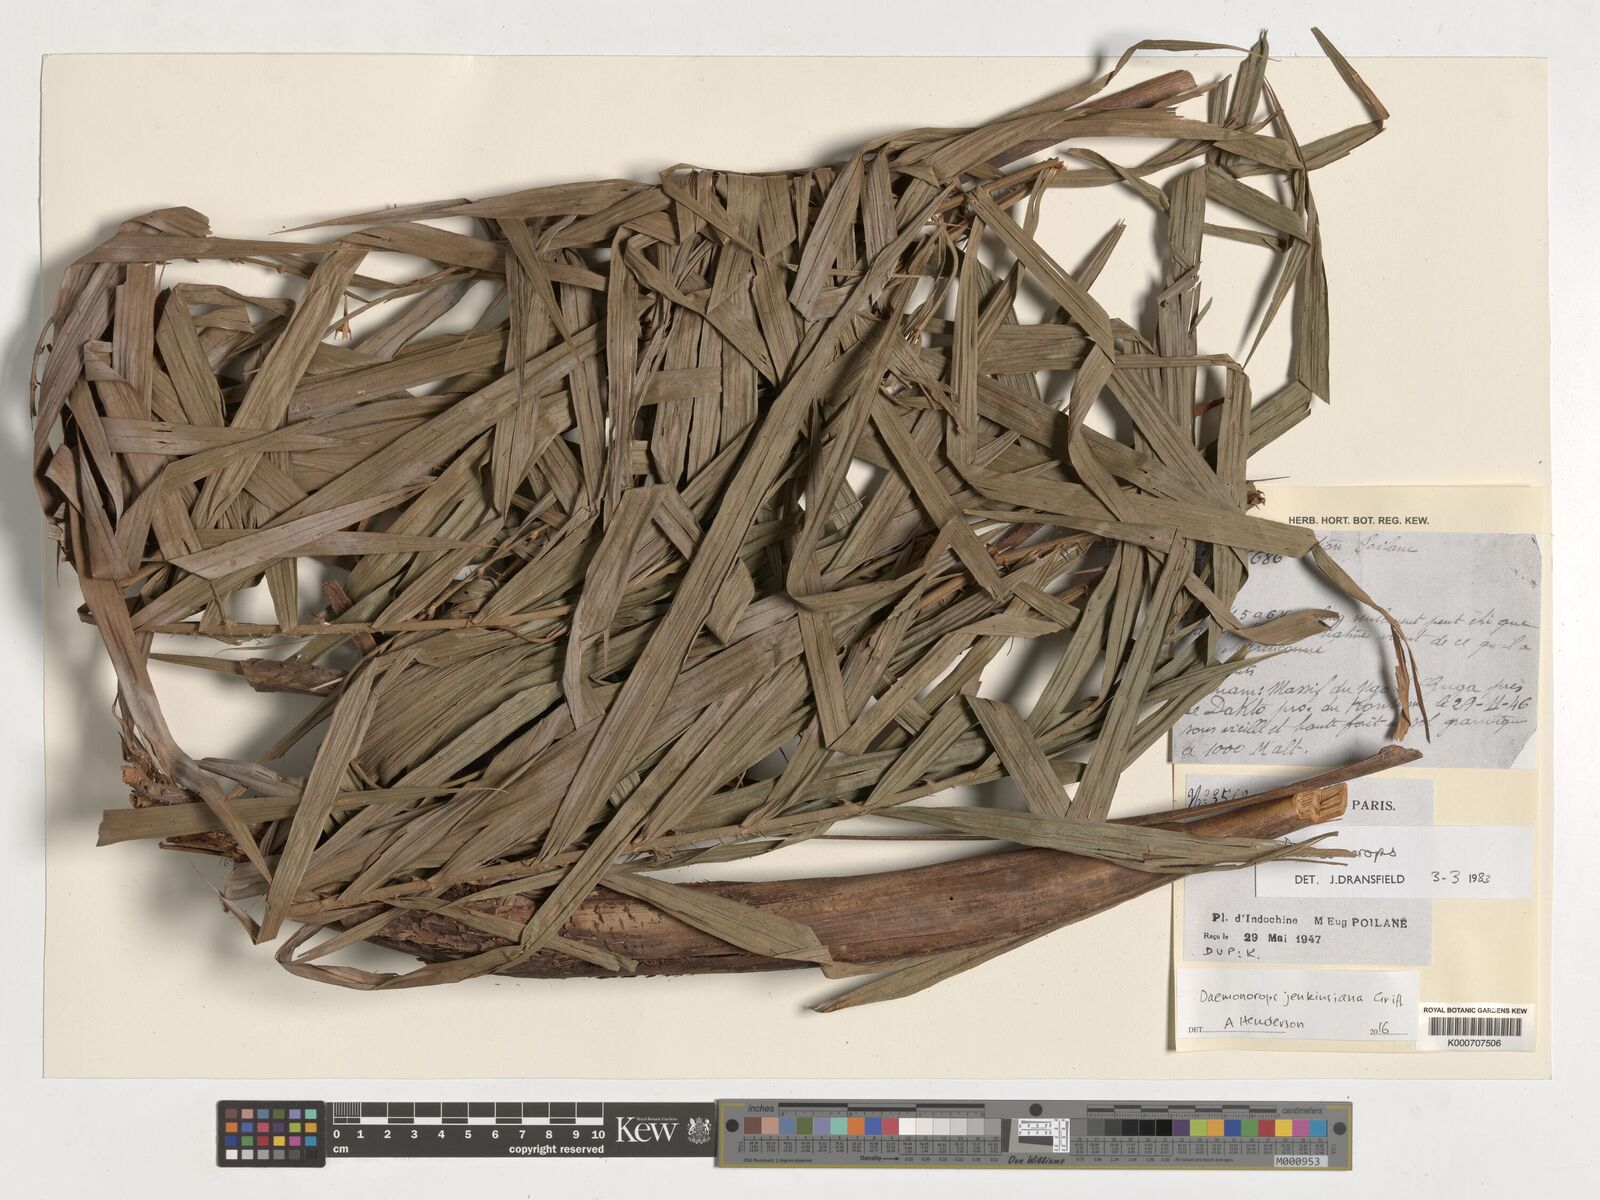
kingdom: Plantae
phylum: Tracheophyta
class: Liliopsida
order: Arecales
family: Arecaceae
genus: Calamus
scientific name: Calamus melanochaetes
